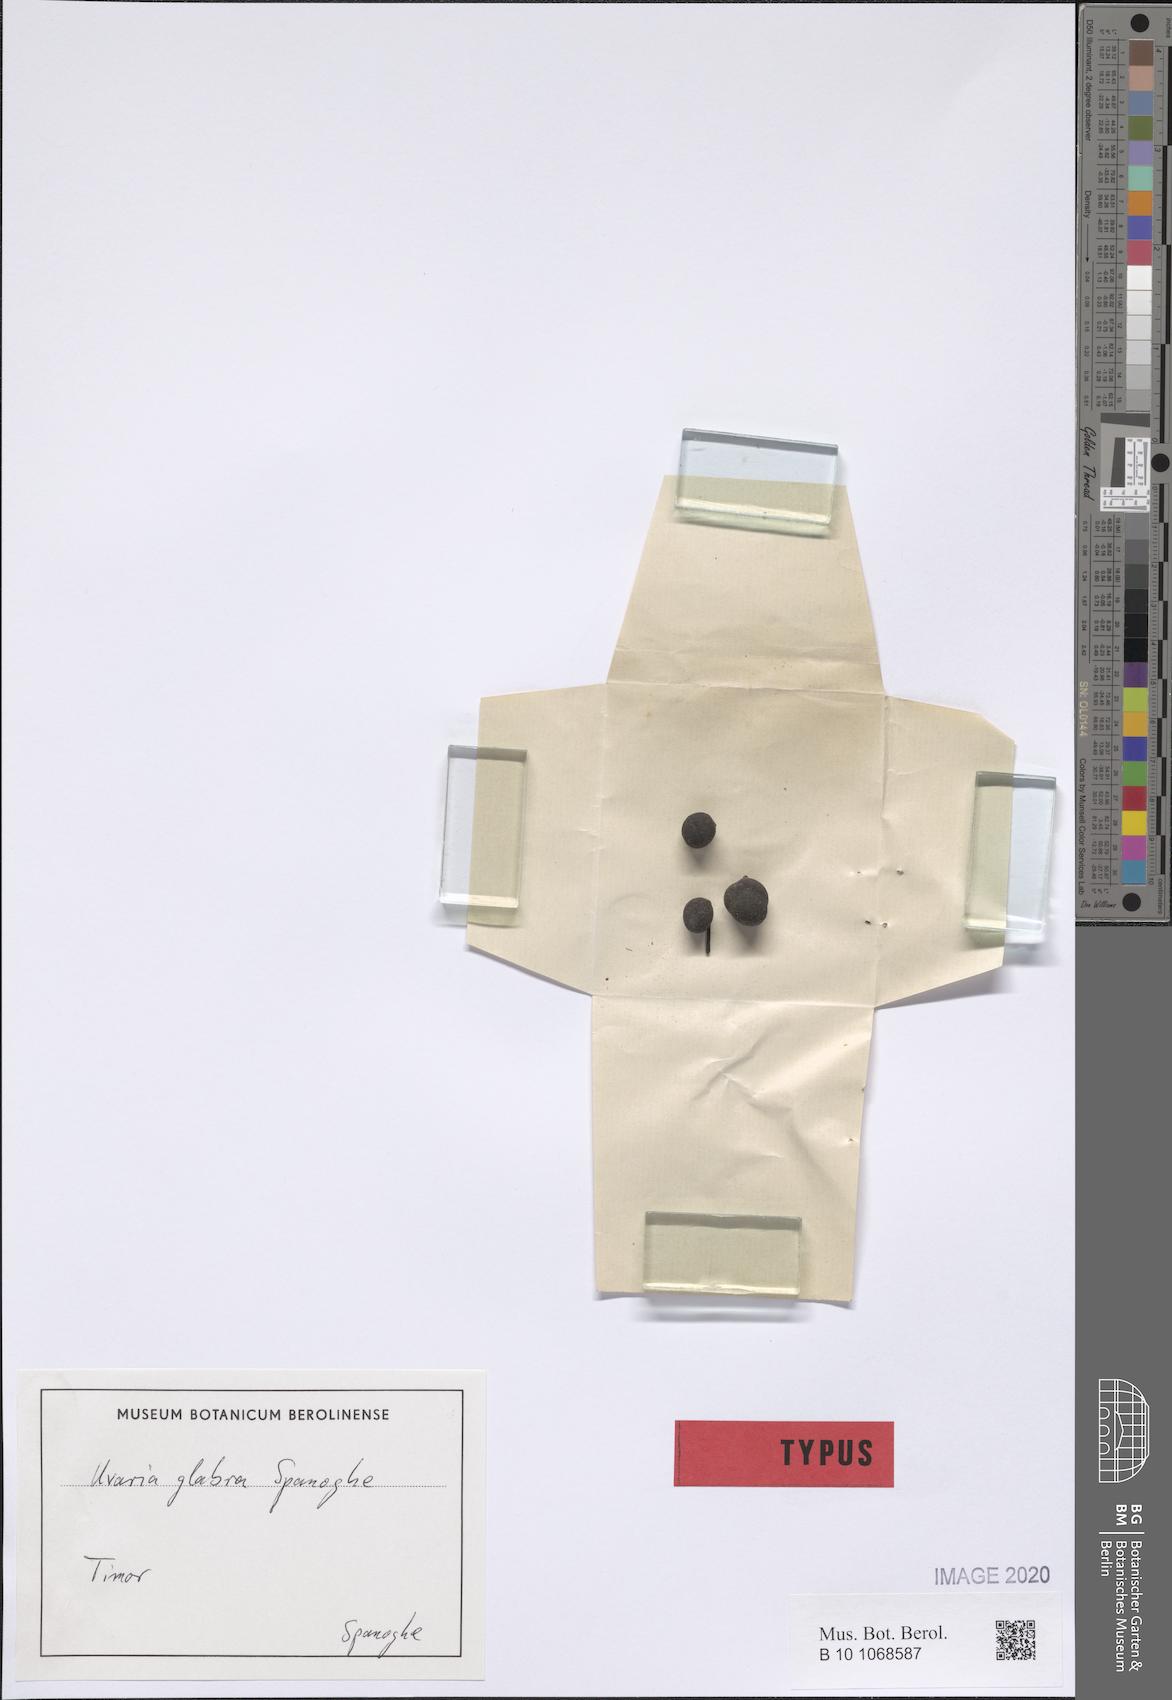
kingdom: Plantae
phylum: Tracheophyta
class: Magnoliopsida
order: Magnoliales
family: Annonaceae
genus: Cyathostemma
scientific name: Cyathostemma glabrum
